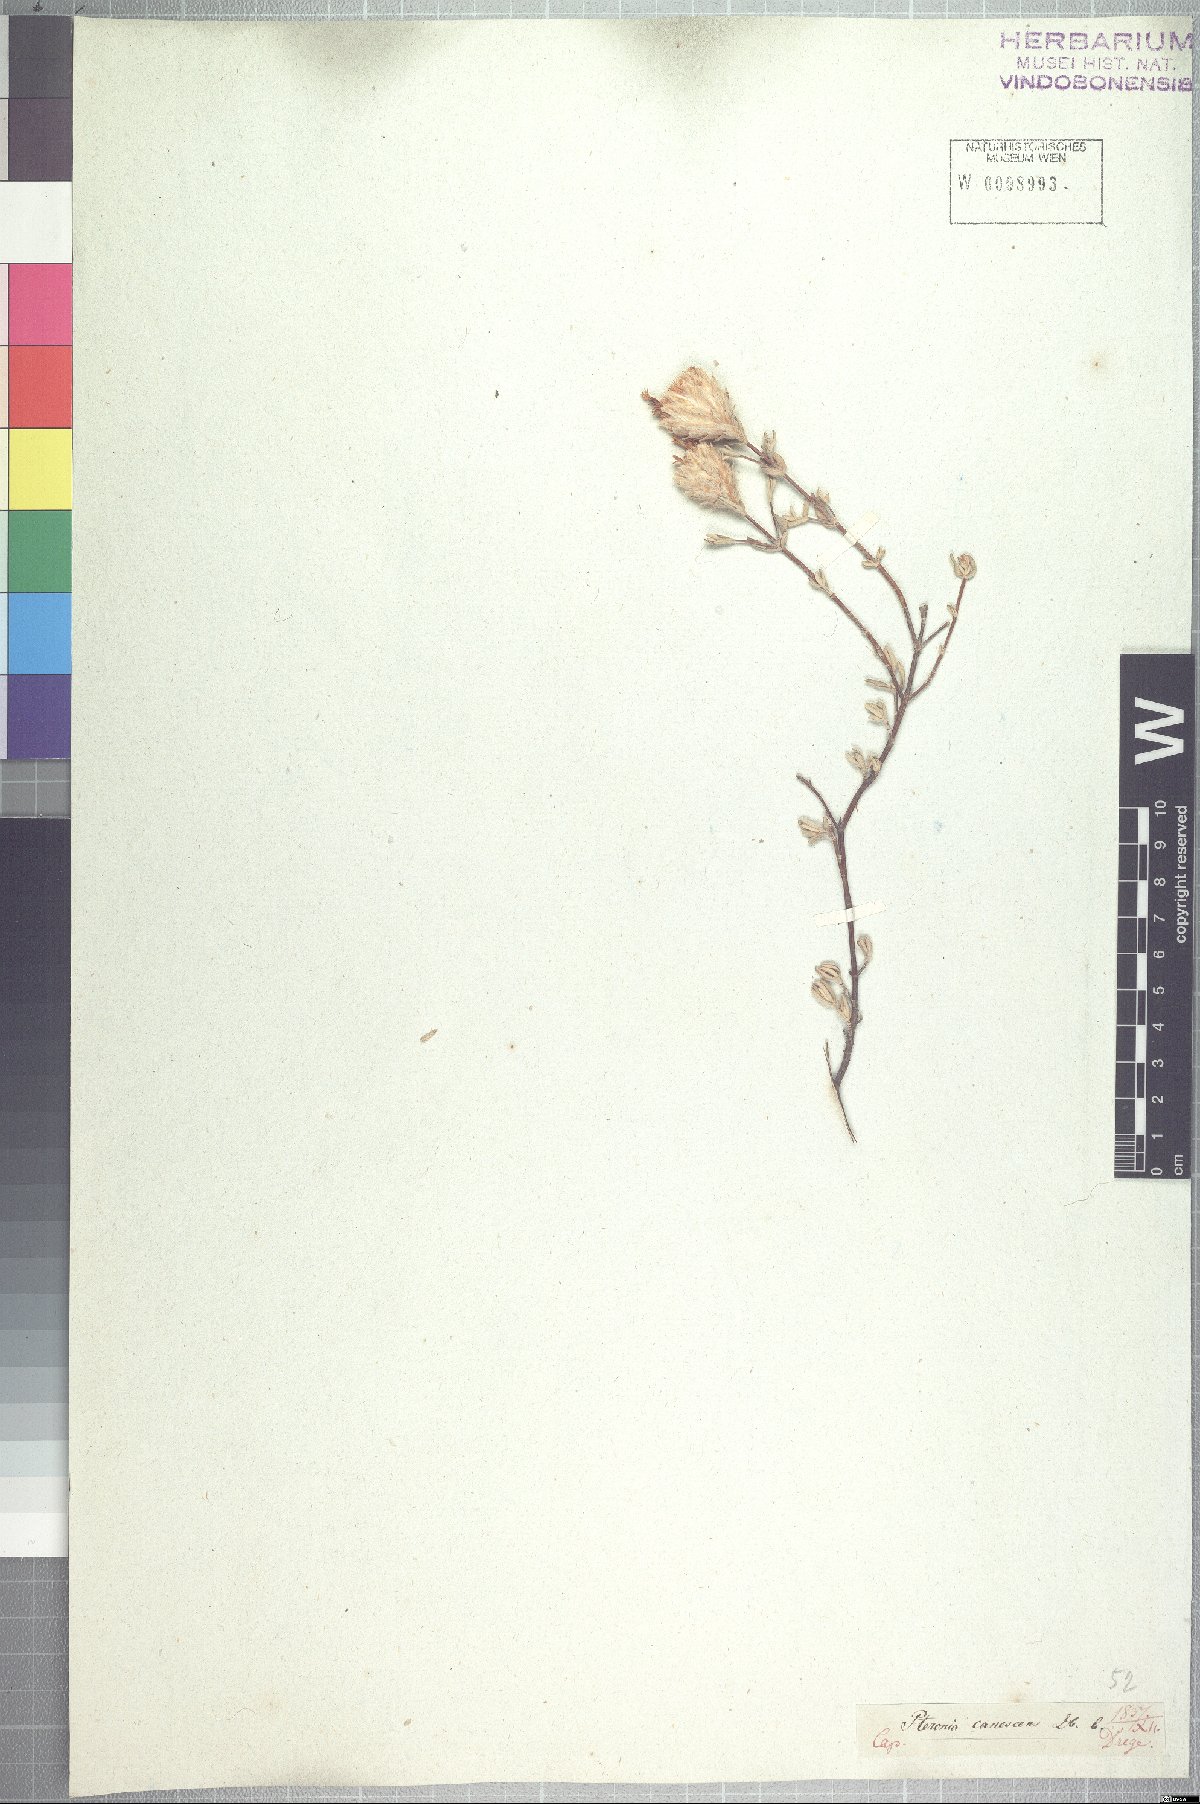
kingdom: Plantae
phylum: Tracheophyta
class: Magnoliopsida
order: Asterales
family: Asteraceae
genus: Pteronia
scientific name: Pteronia cinerea
